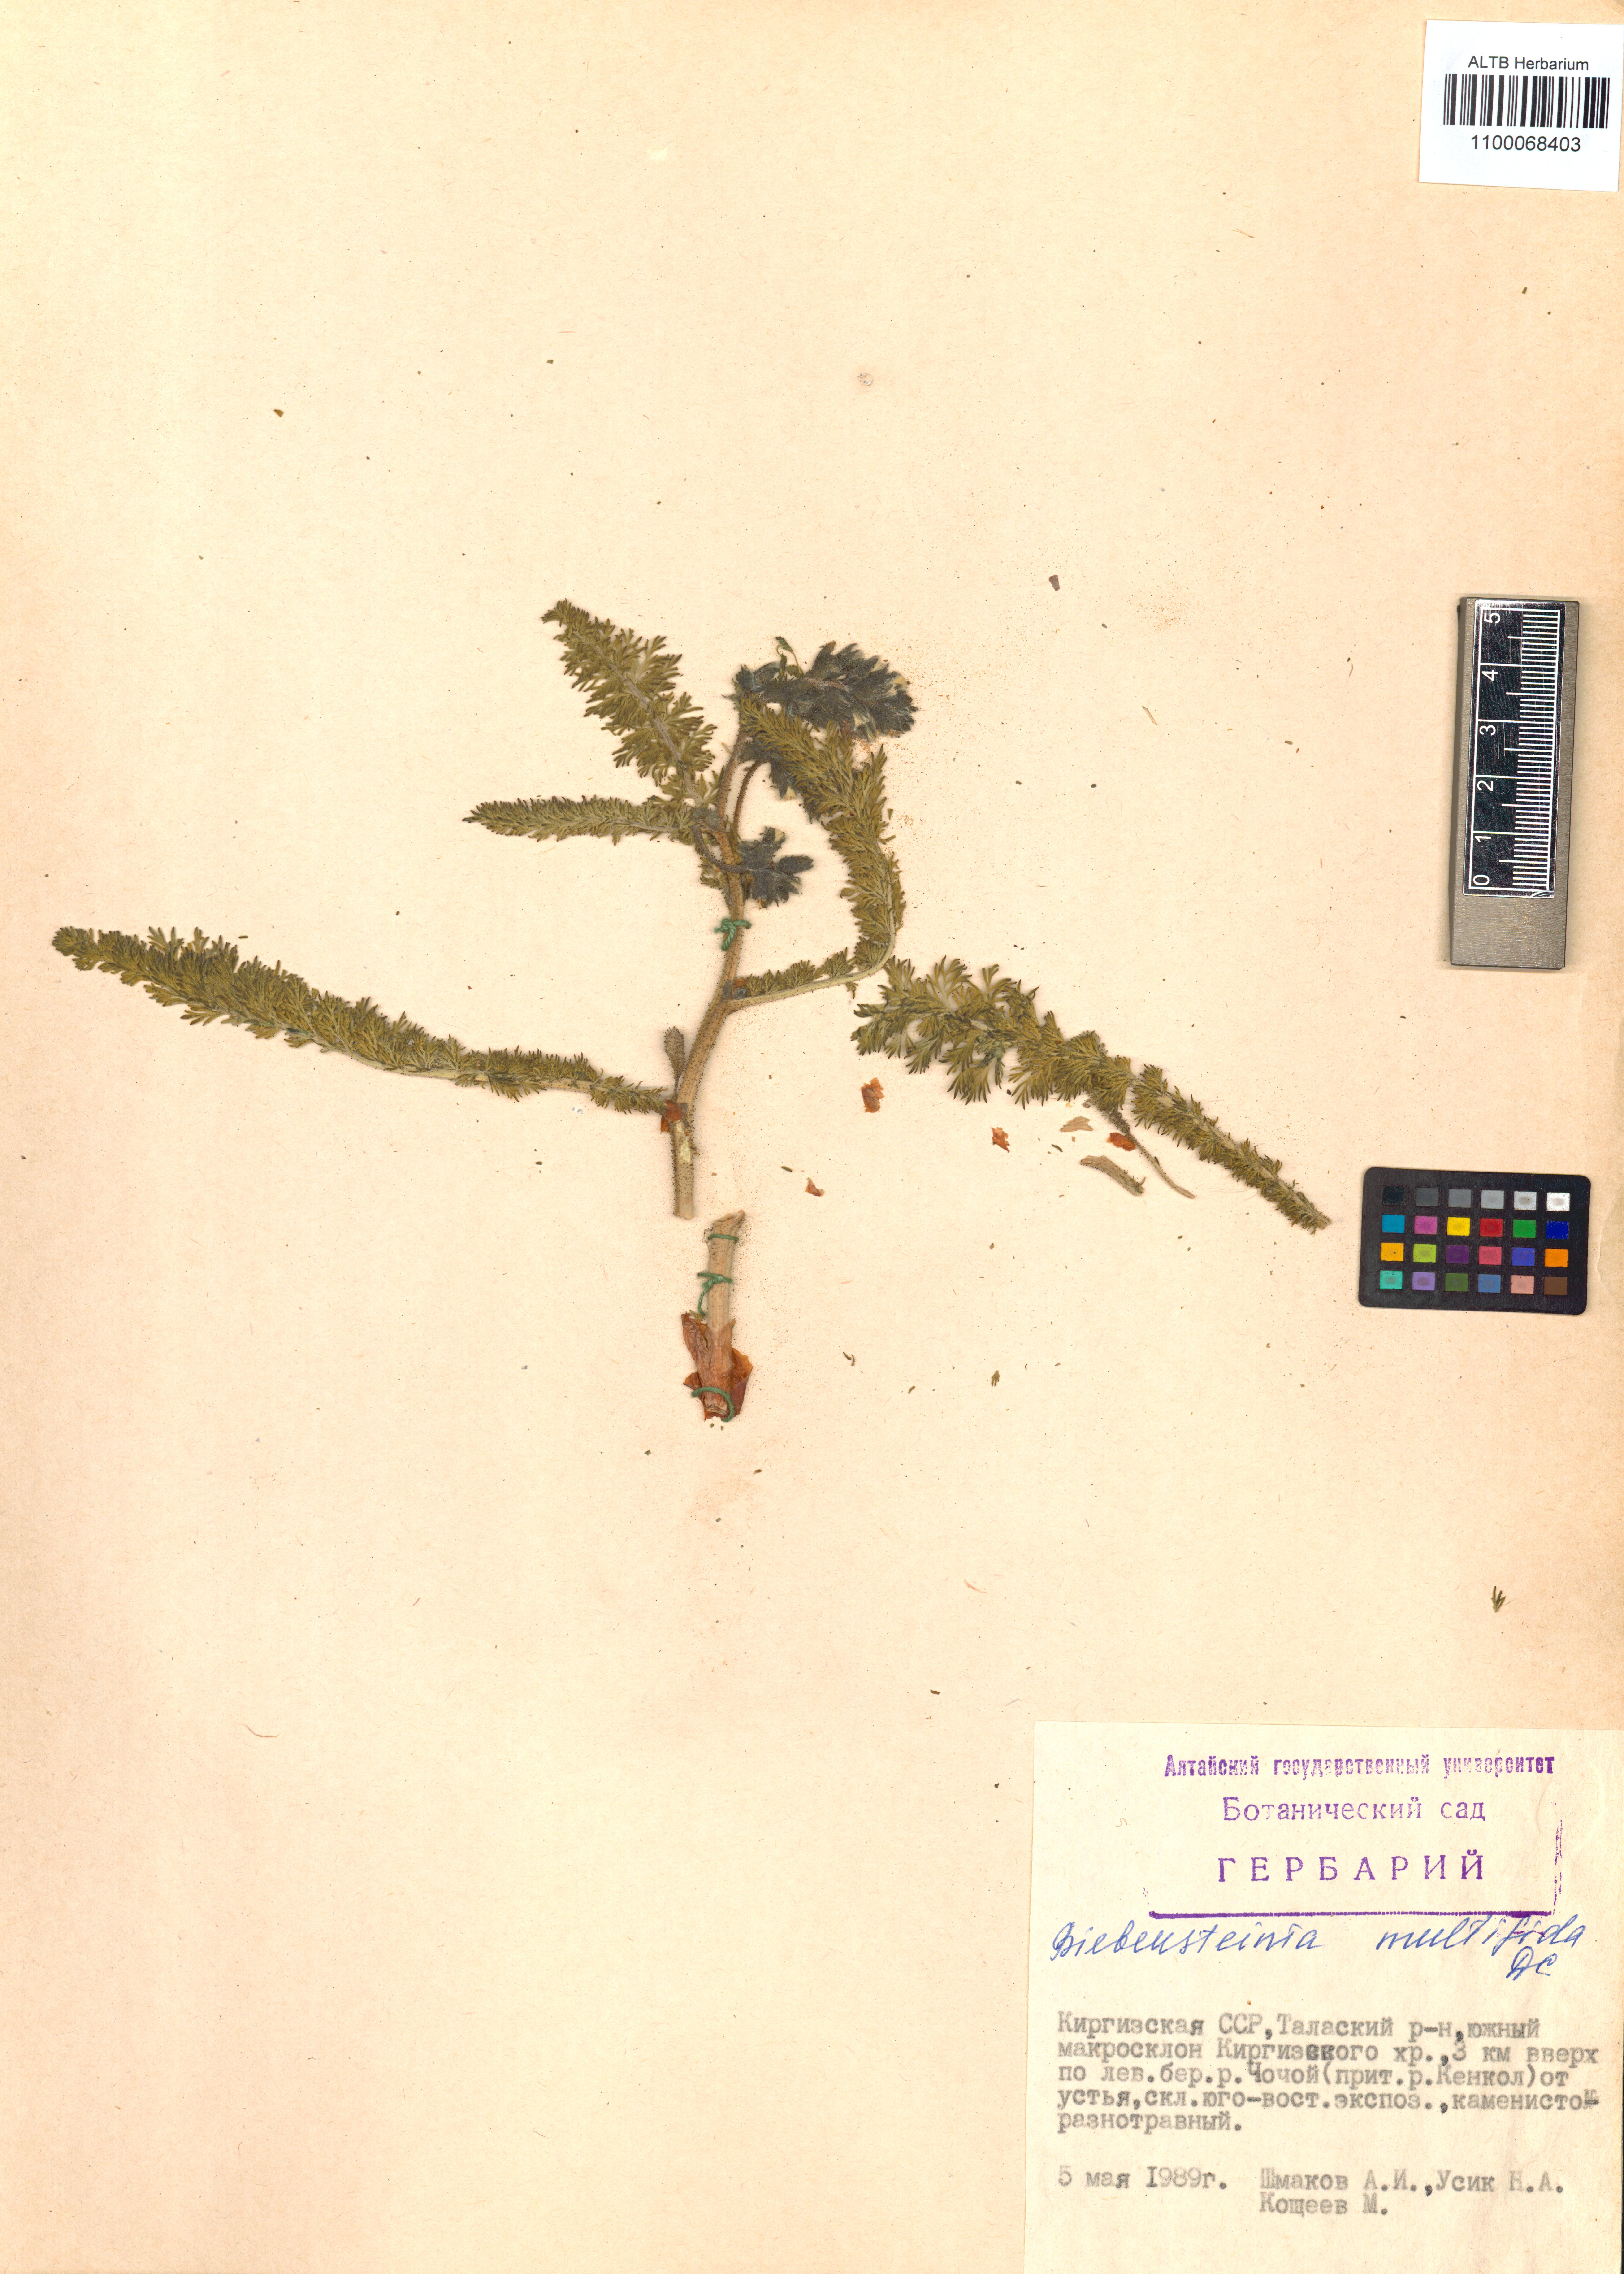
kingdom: Plantae
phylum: Tracheophyta
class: Magnoliopsida
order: Sapindales
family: Biebersteiniaceae
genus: Biebersteinia
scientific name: Biebersteinia multifida
